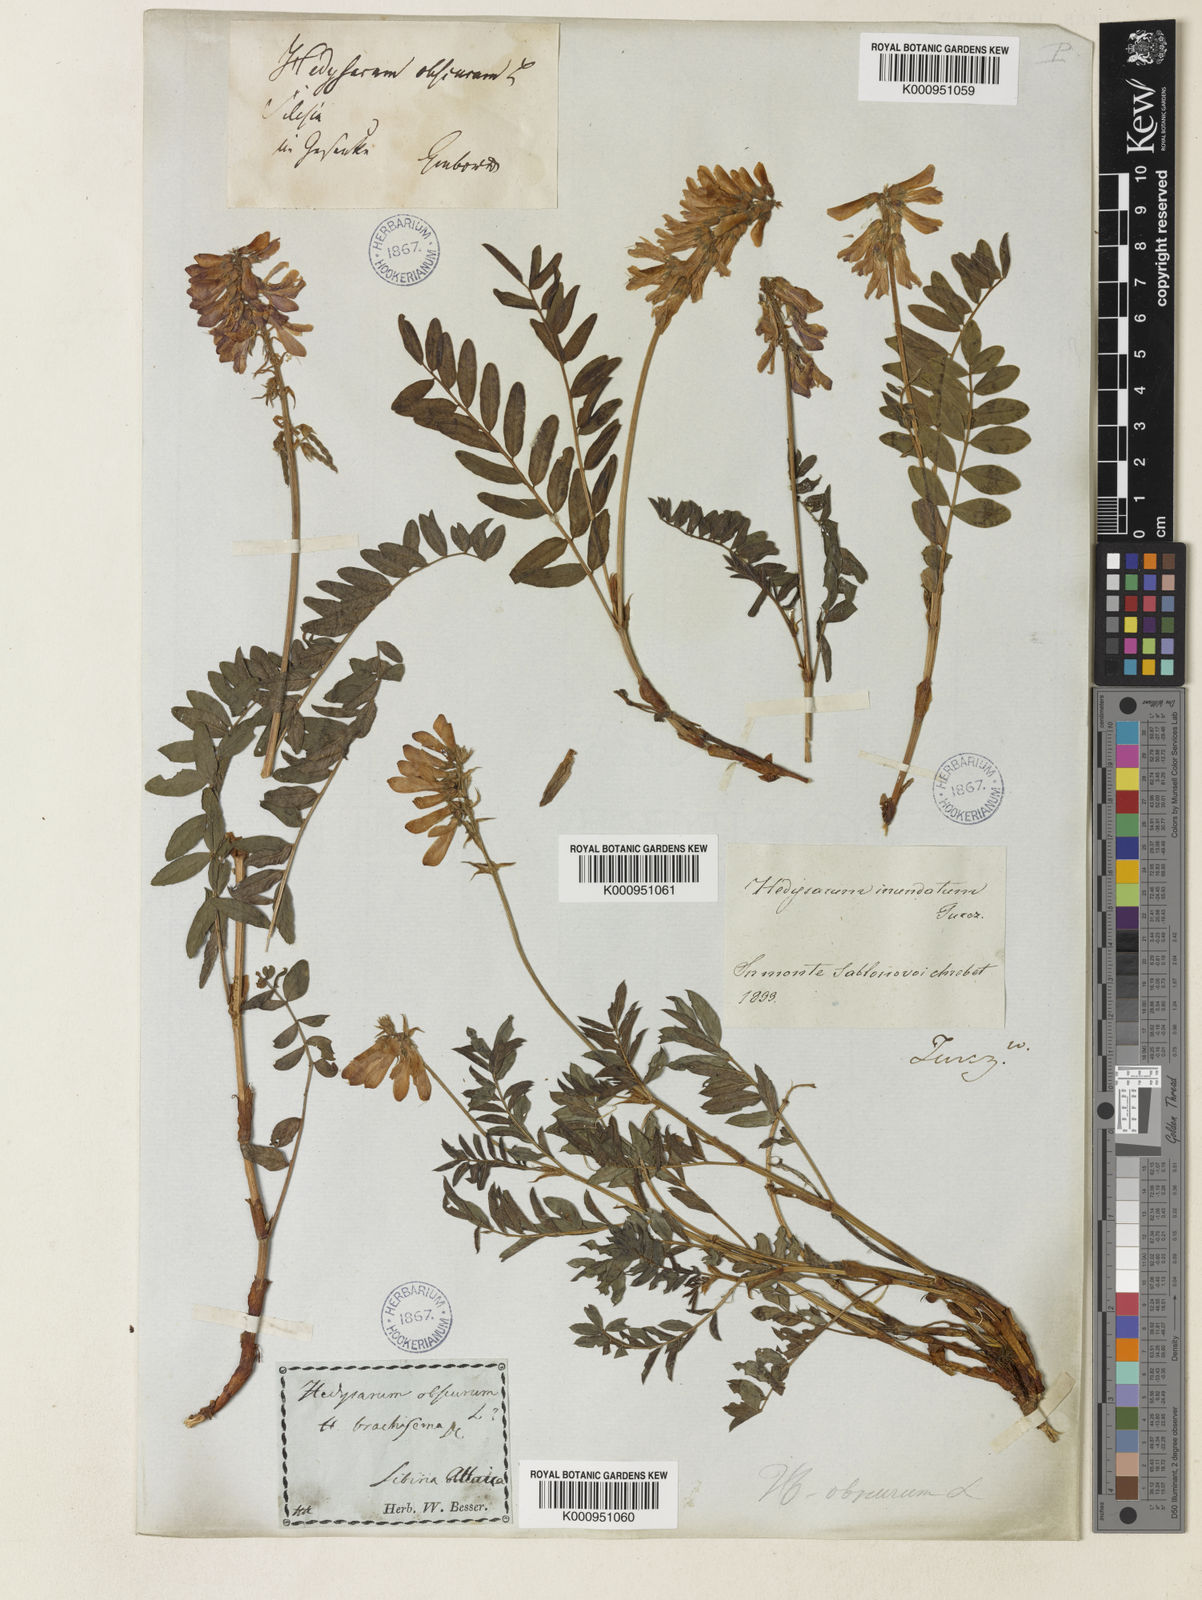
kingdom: Plantae
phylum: Tracheophyta
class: Magnoliopsida
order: Fabales
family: Fabaceae
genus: Hedysarum
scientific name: Hedysarum hedysaroides
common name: Alpine french-honeysuckle
